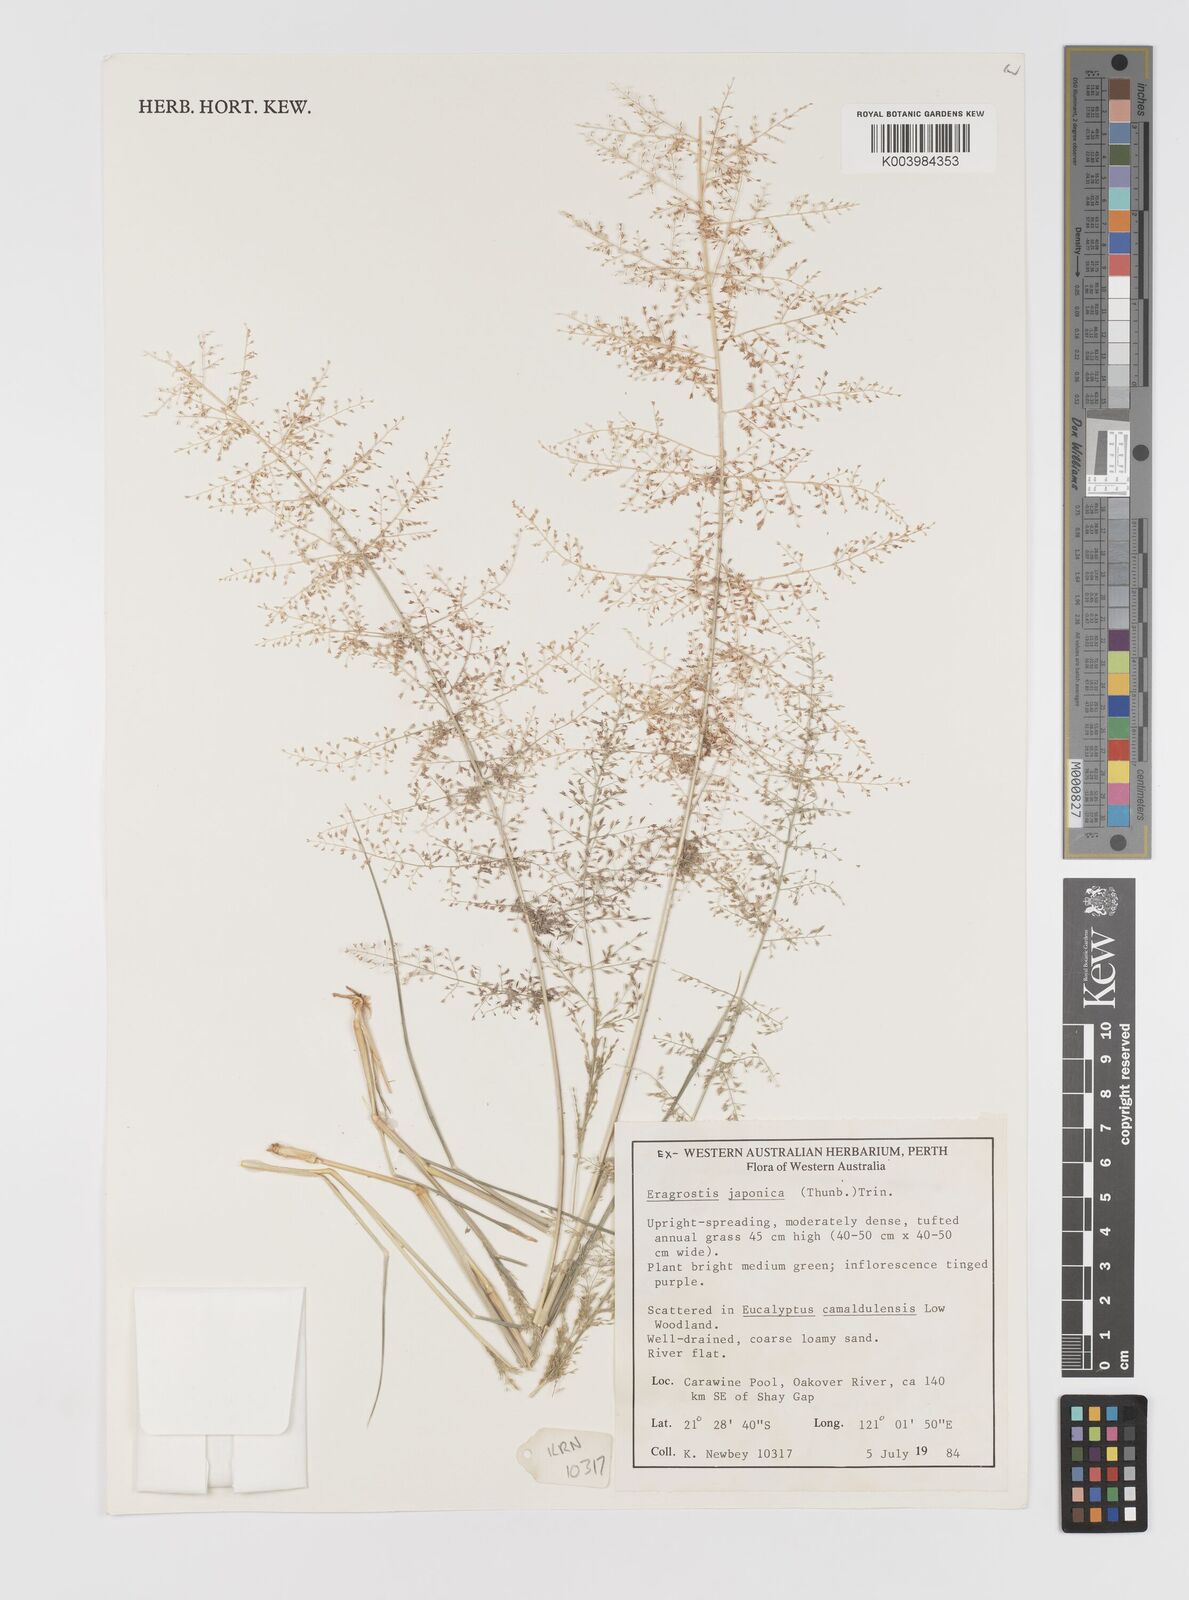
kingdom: Plantae
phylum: Tracheophyta
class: Liliopsida
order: Poales
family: Poaceae
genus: Eragrostis
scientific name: Eragrostis tenellula
